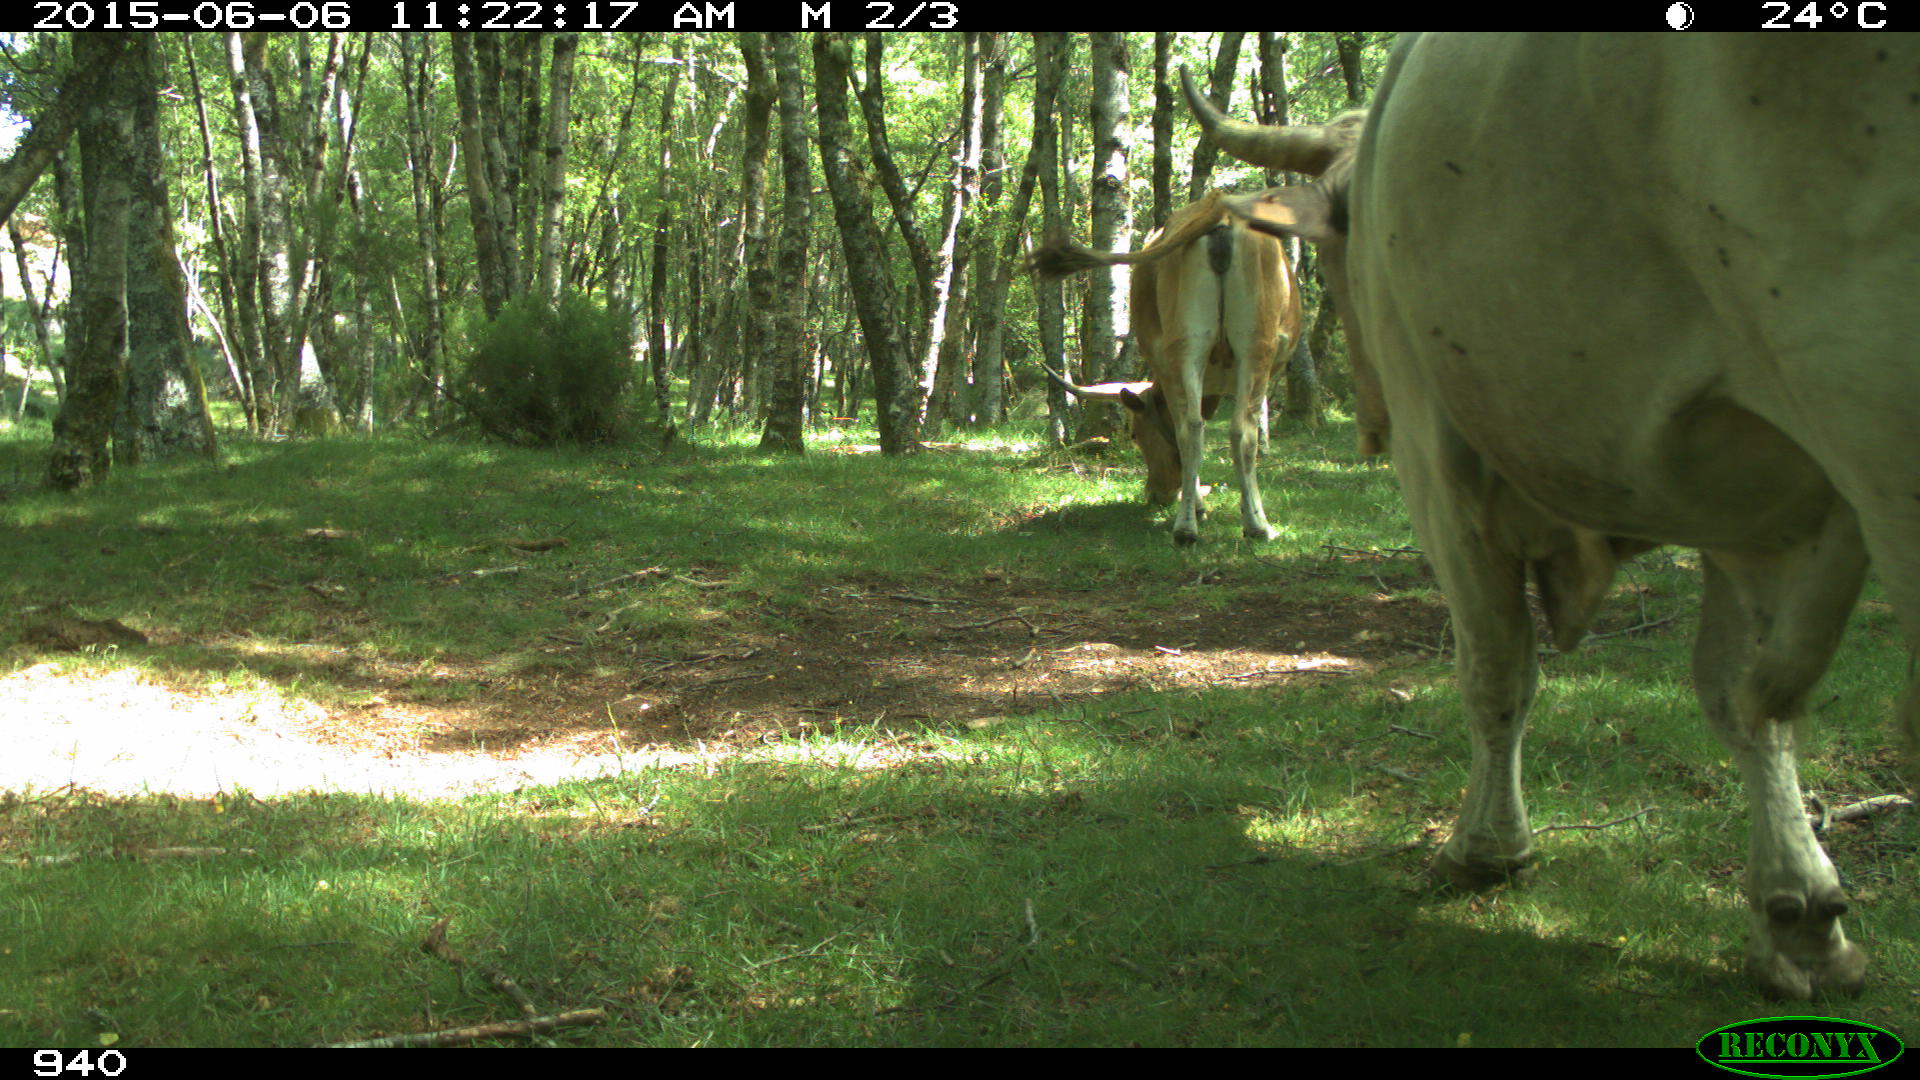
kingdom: Animalia
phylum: Chordata
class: Mammalia
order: Artiodactyla
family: Bovidae
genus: Bos
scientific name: Bos taurus
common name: Domesticated cattle
